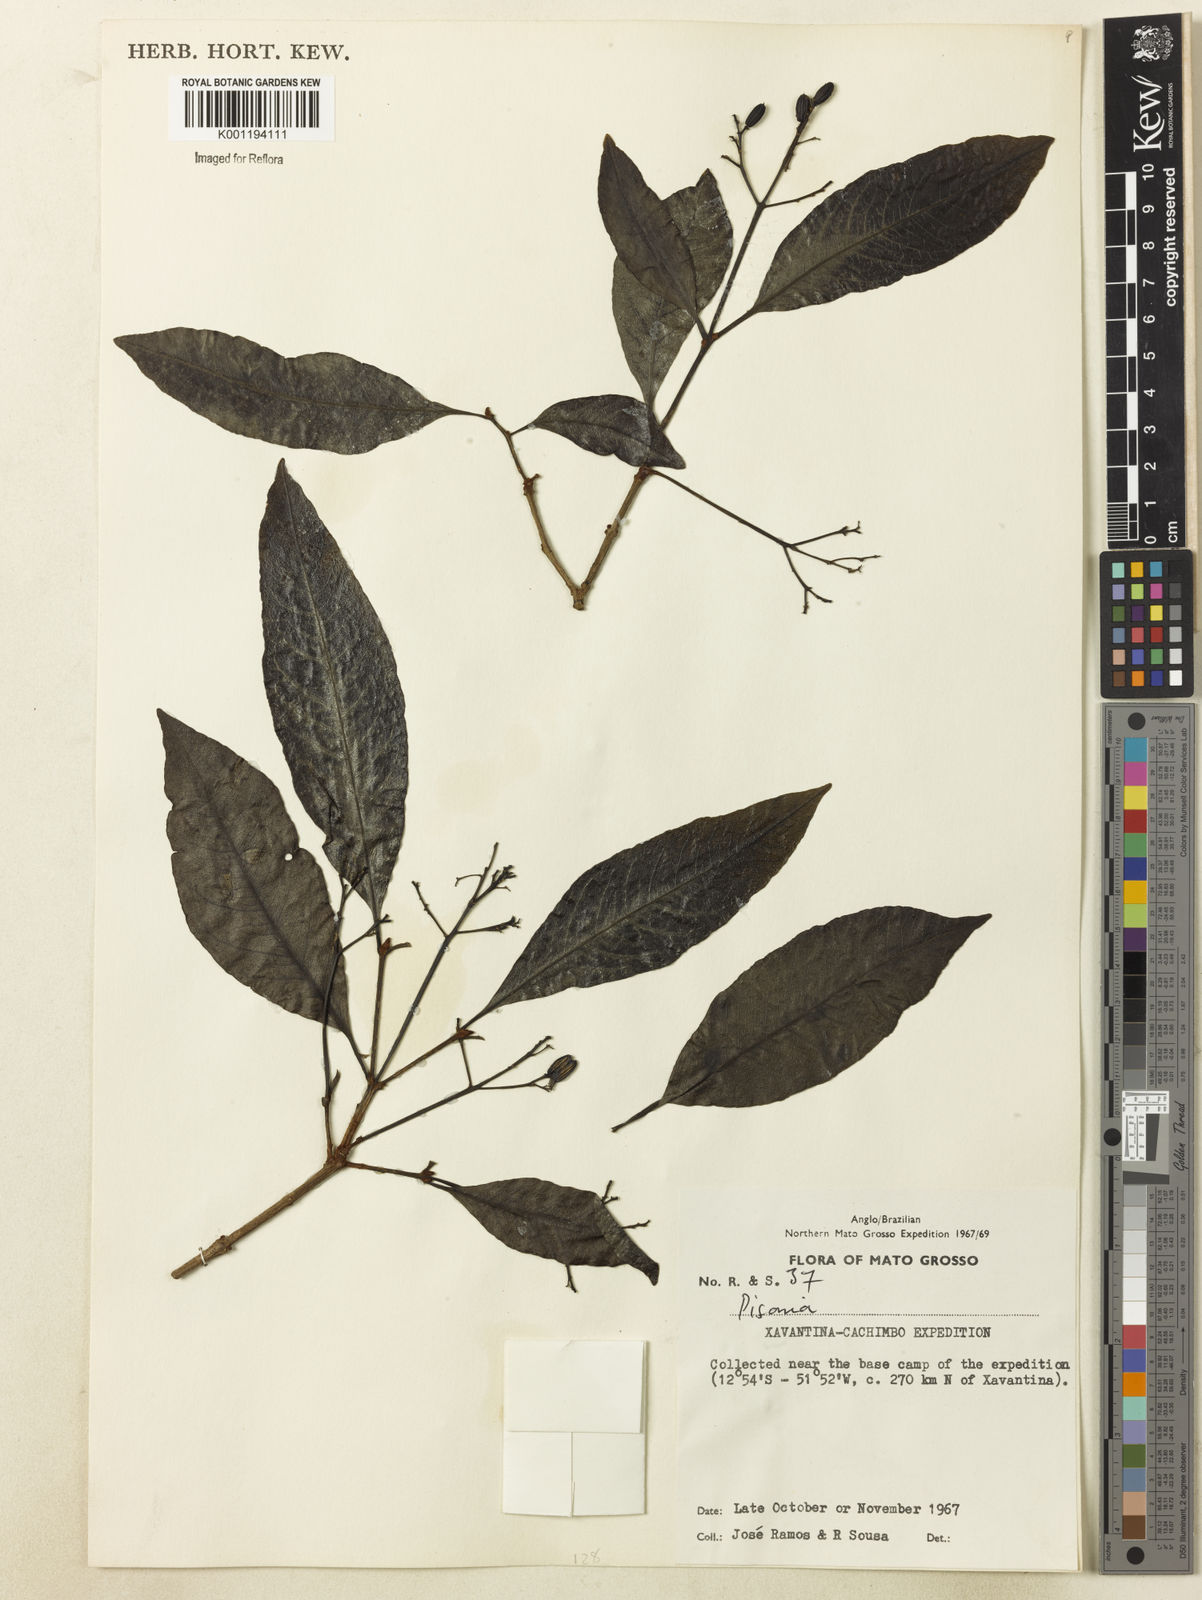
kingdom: Plantae
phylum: Tracheophyta
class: Magnoliopsida
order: Caryophyllales
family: Nyctaginaceae
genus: Guapira
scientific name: Guapira
